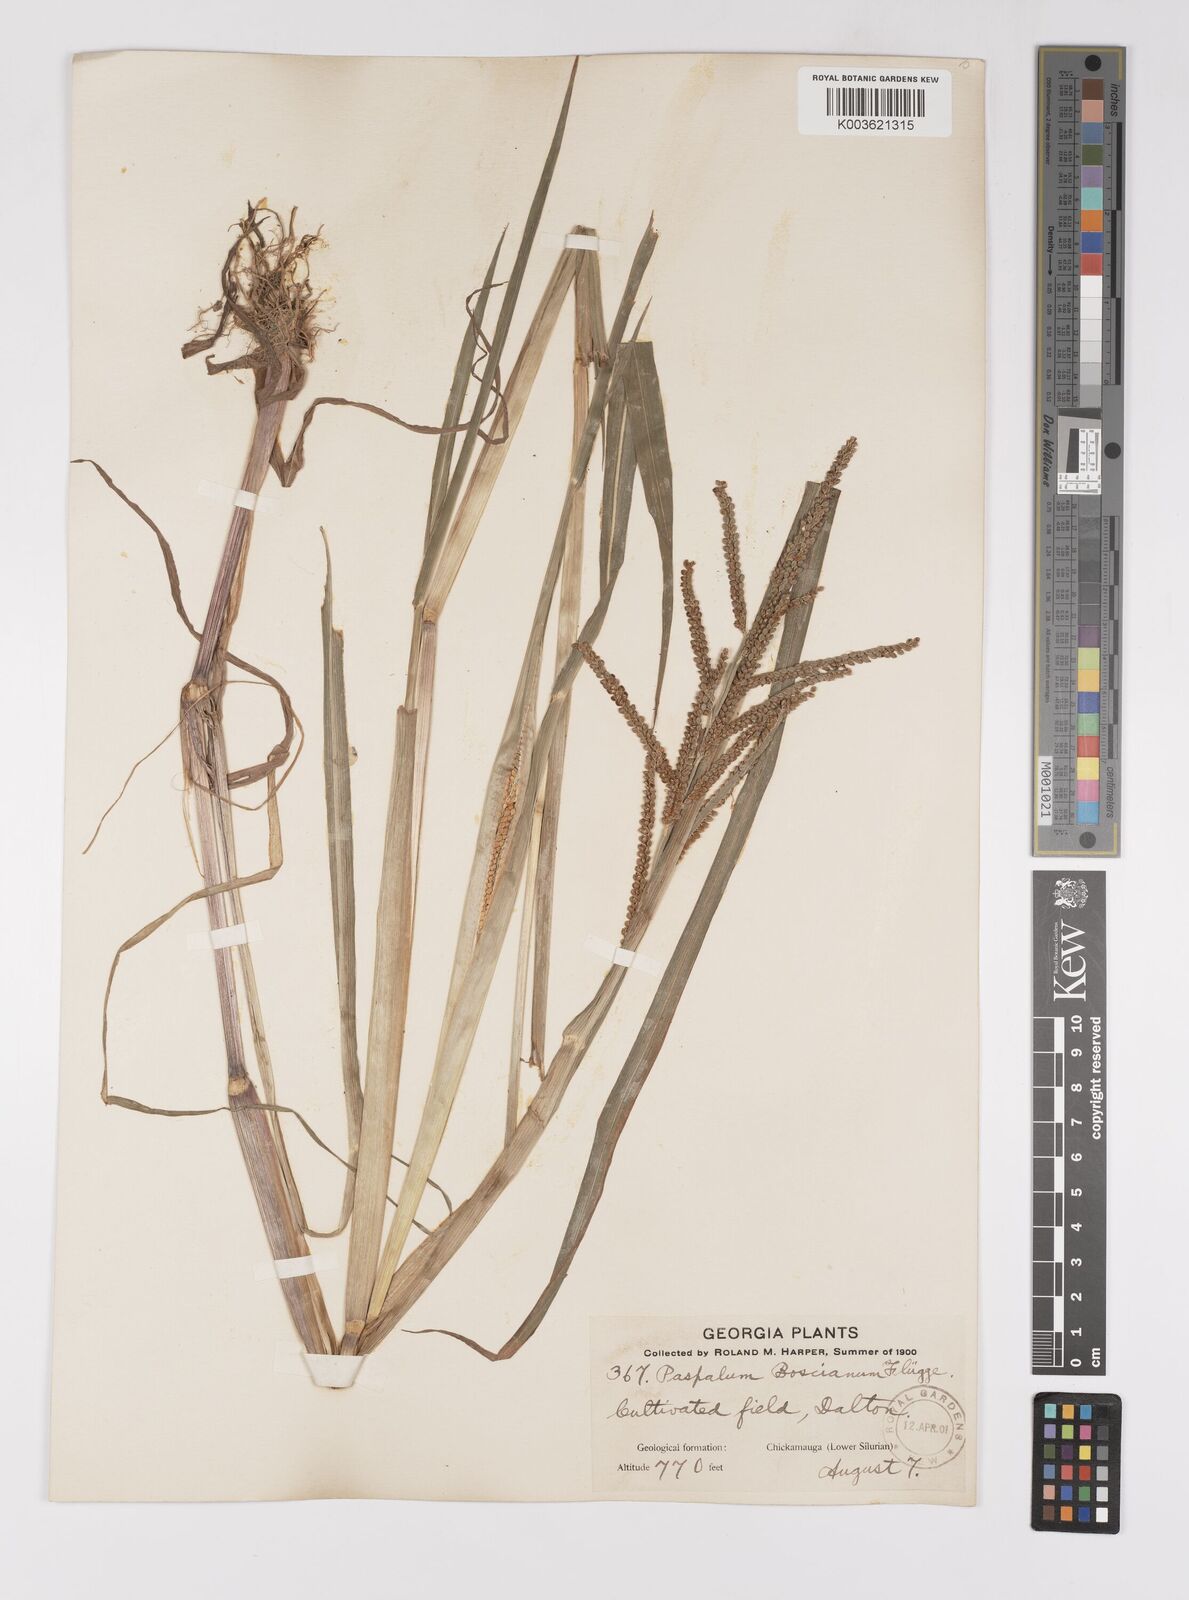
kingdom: Plantae
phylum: Tracheophyta
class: Liliopsida
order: Poales
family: Poaceae
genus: Paspalum
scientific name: Paspalum scrobiculatum
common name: Kodo millet
